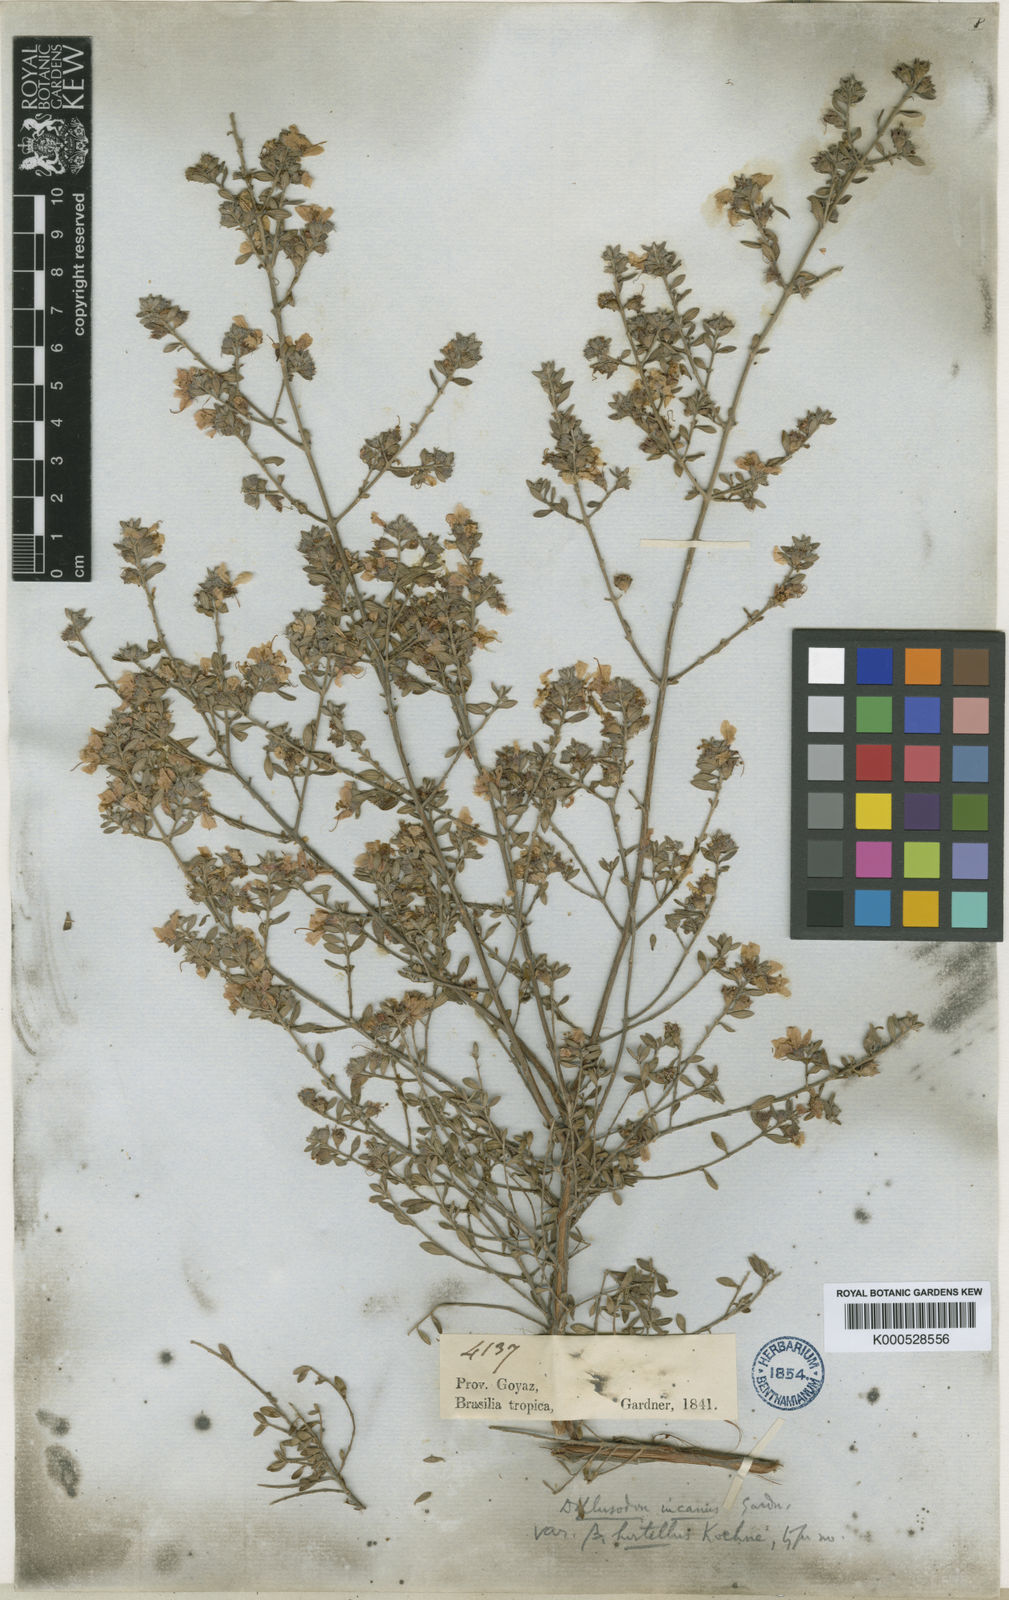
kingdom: Plantae
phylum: Tracheophyta
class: Magnoliopsida
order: Myrtales
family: Lythraceae
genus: Diplusodon
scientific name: Diplusodon incanus
